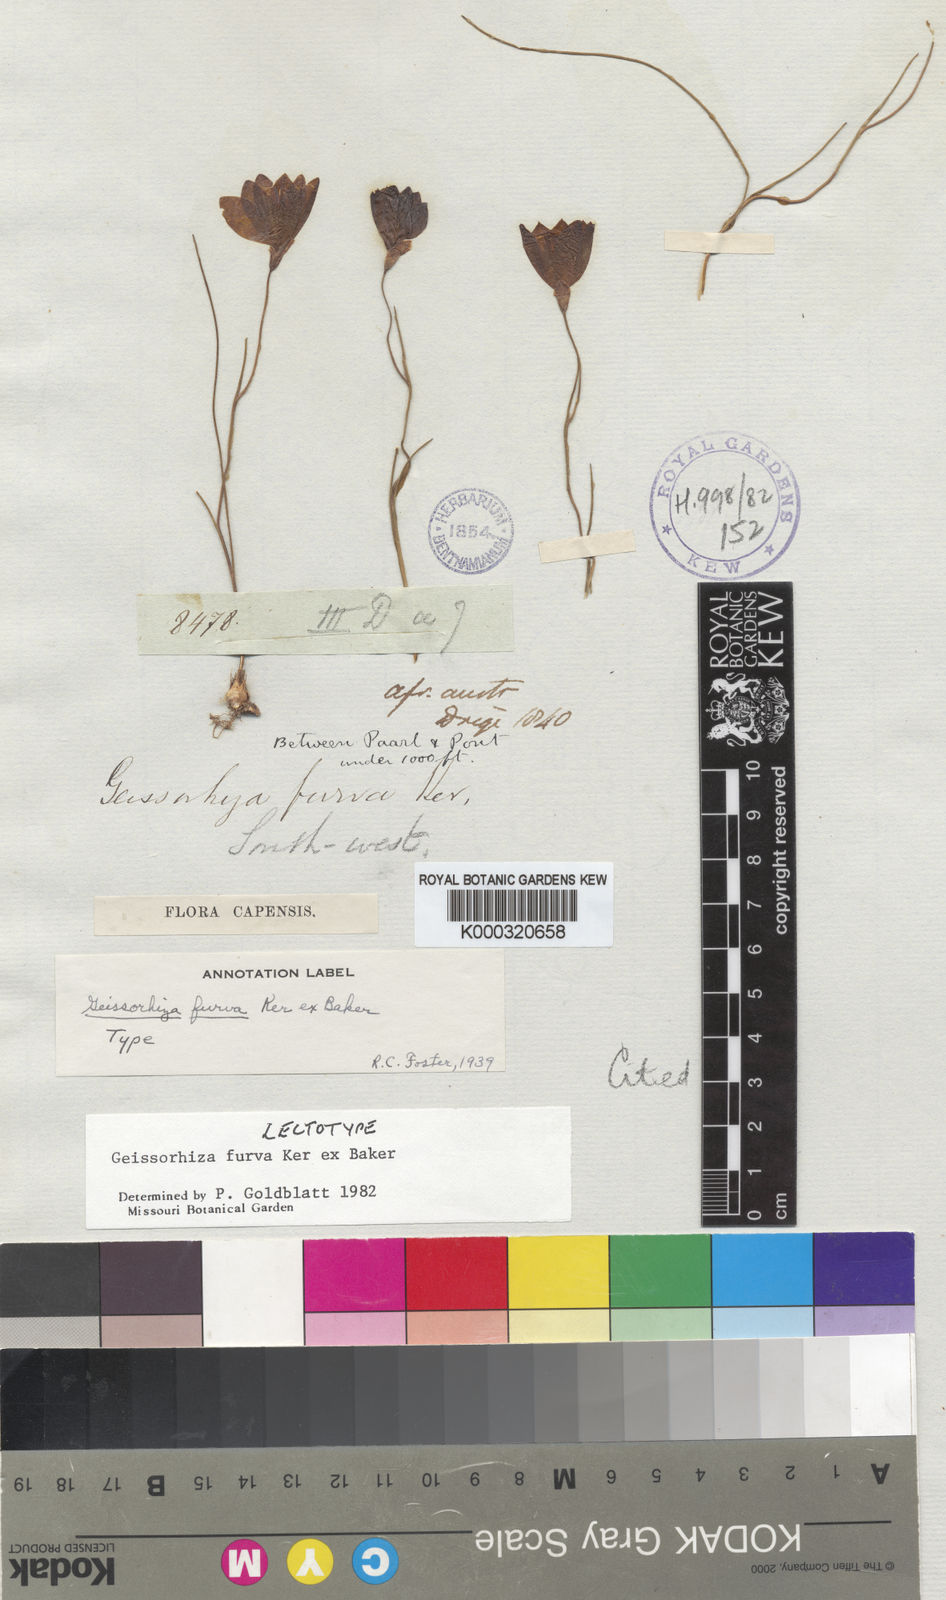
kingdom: Plantae
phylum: Tracheophyta
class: Liliopsida
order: Asparagales
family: Iridaceae
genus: Geissorhiza
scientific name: Geissorhiza furva
